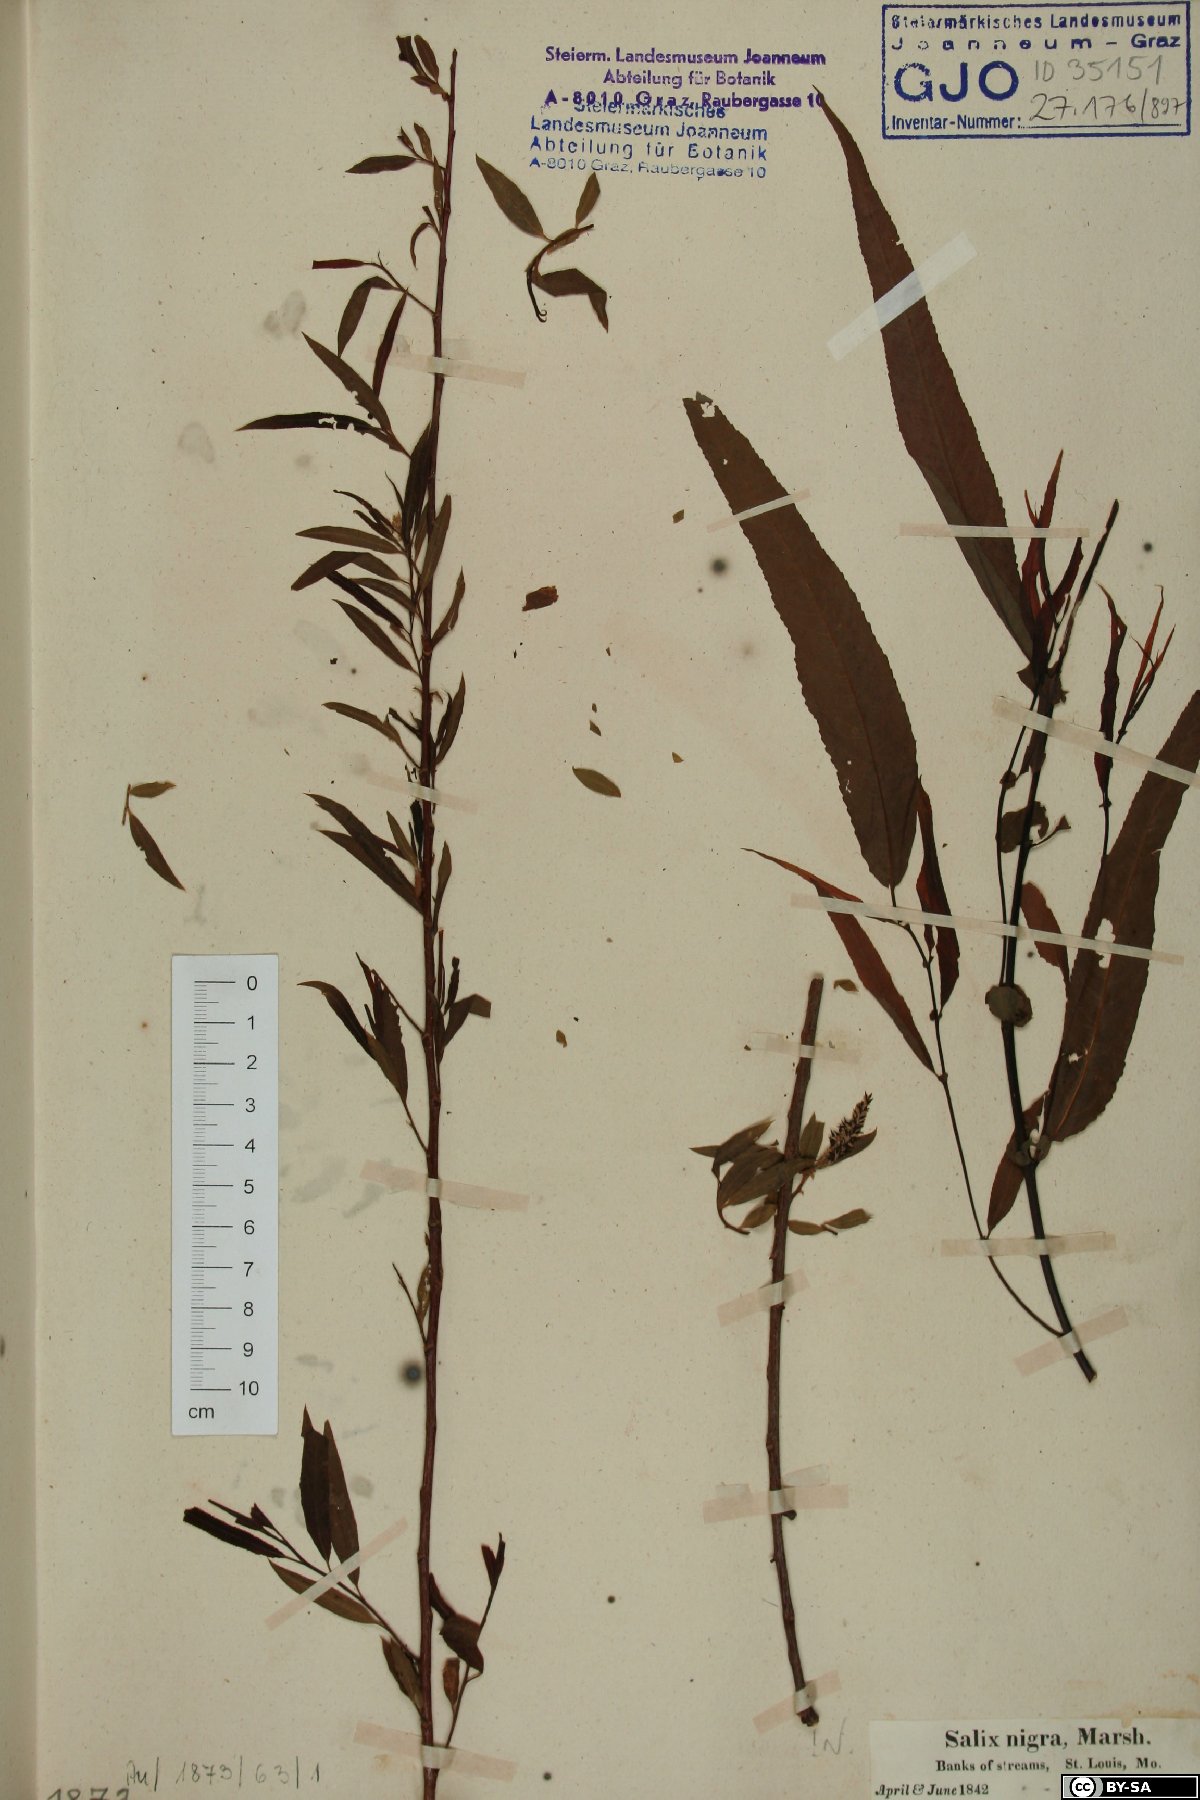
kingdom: Plantae
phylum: Tracheophyta
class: Magnoliopsida
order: Malpighiales
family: Salicaceae
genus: Salix
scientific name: Salix nigra
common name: Black willow
